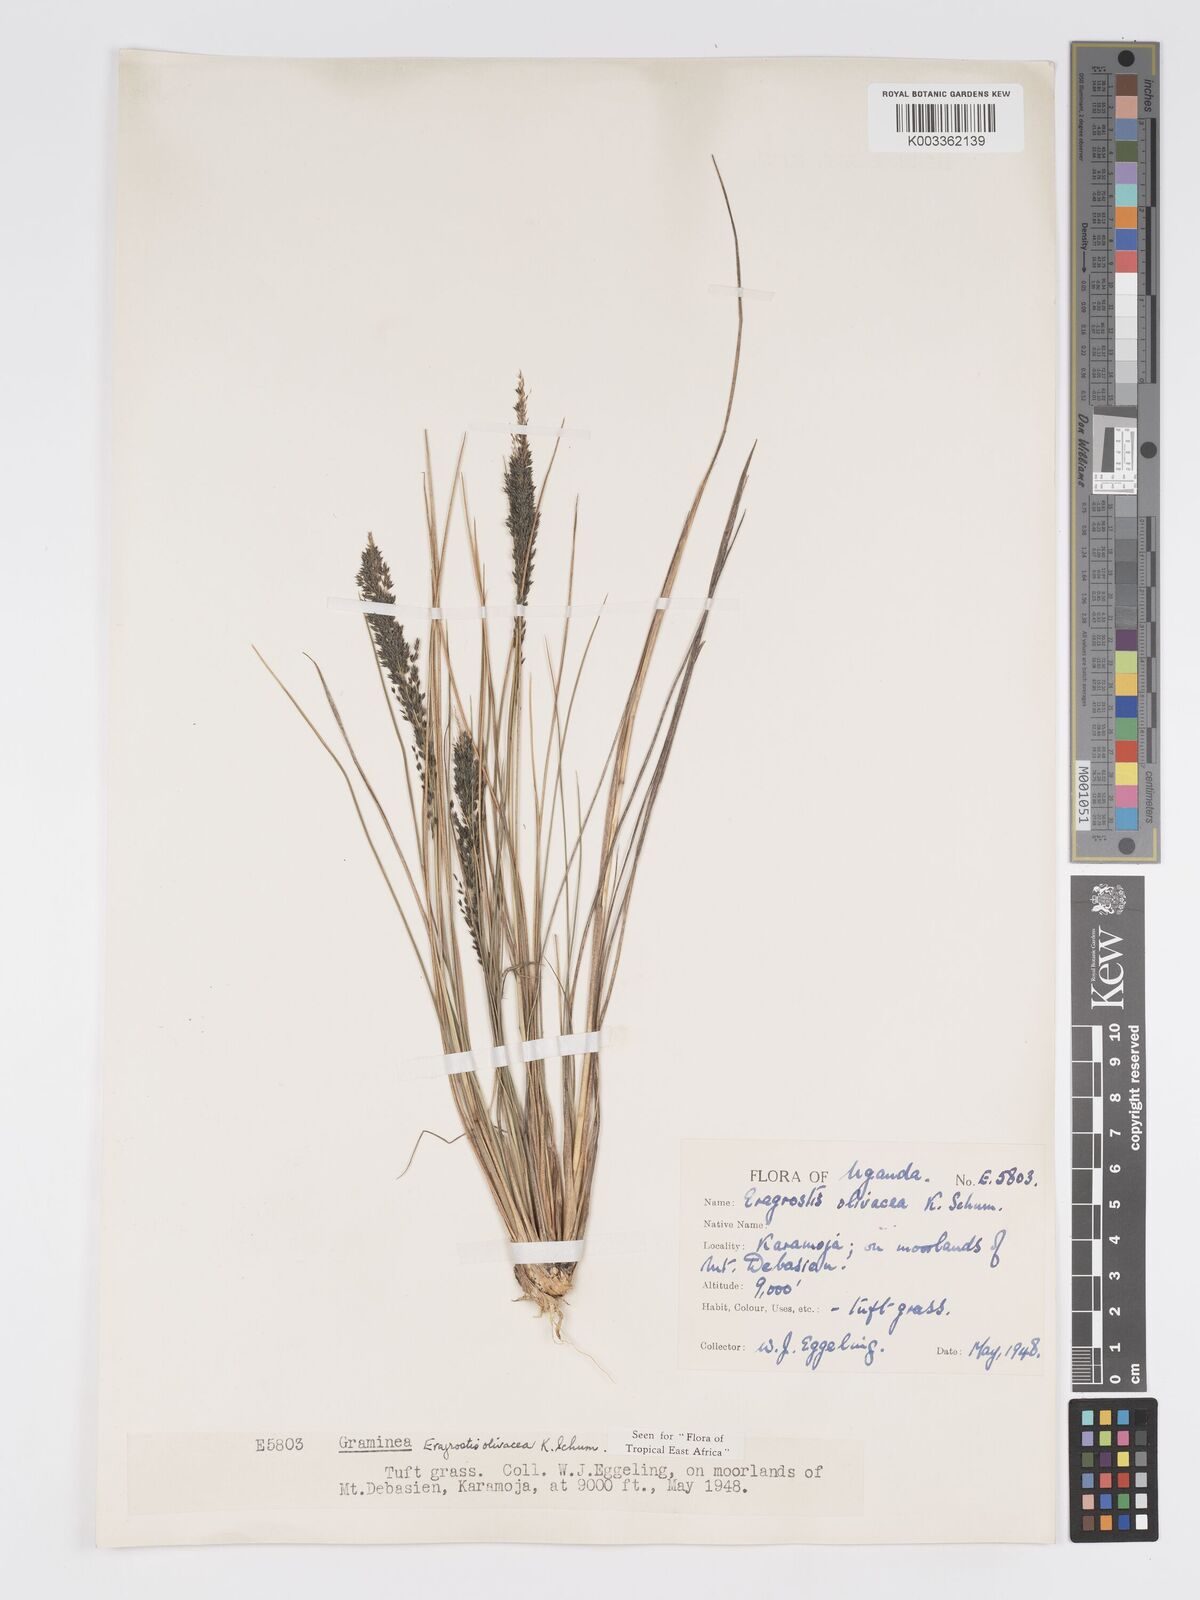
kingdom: Plantae
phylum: Tracheophyta
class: Liliopsida
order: Poales
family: Poaceae
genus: Eragrostis
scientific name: Eragrostis olivacea
